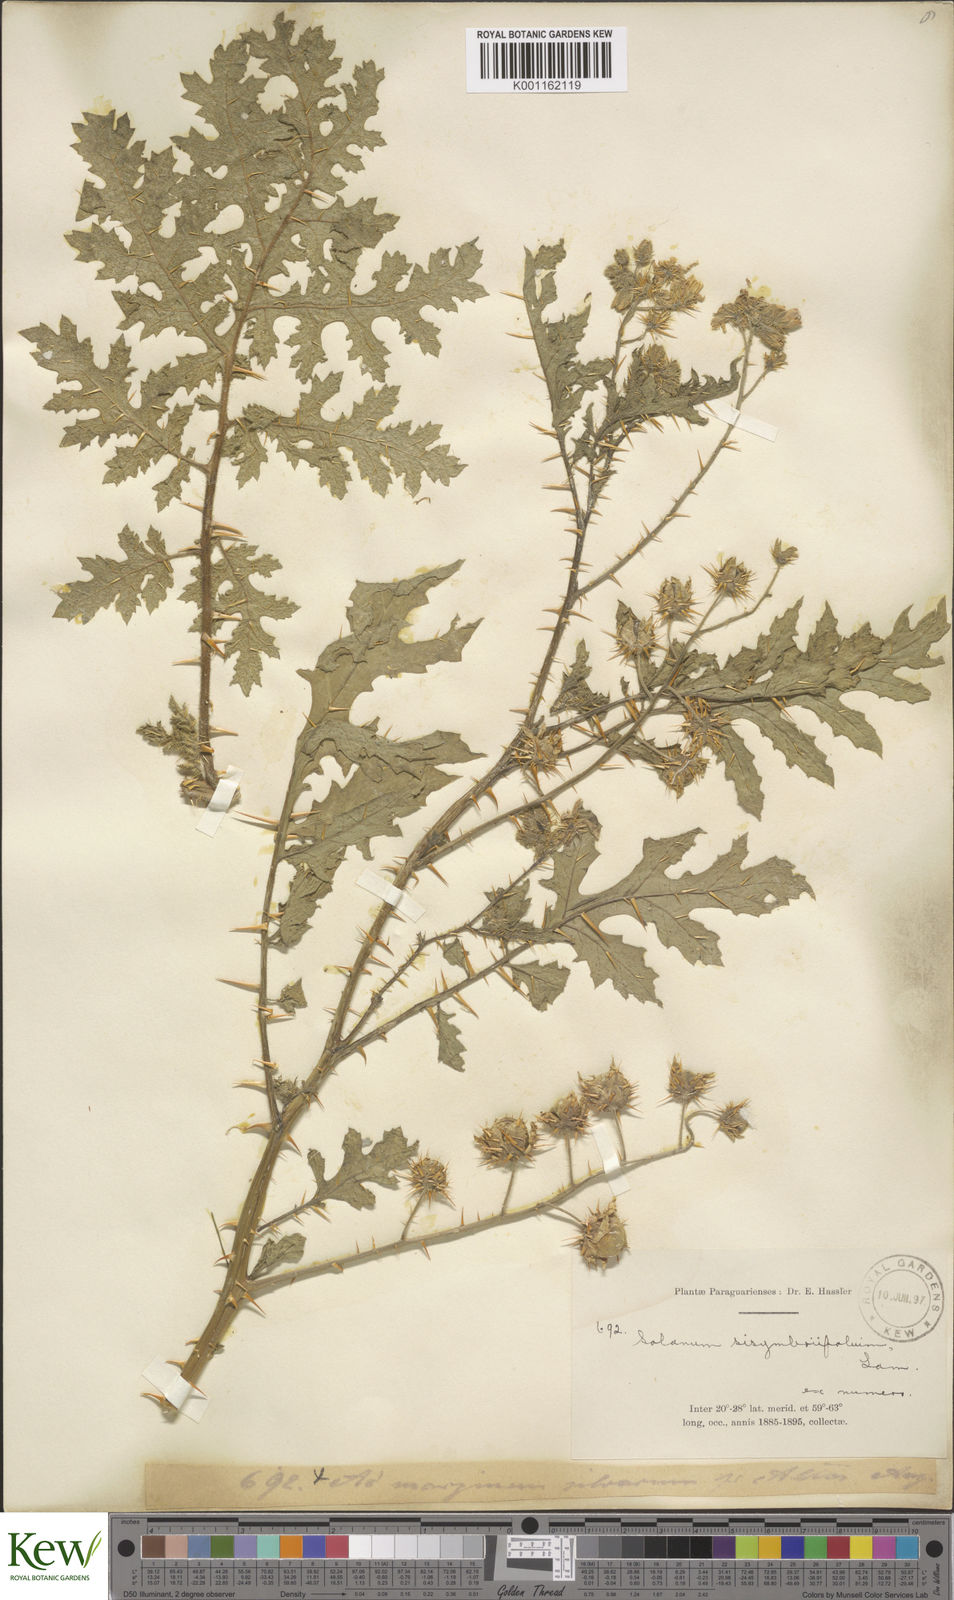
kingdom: Plantae
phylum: Tracheophyta
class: Magnoliopsida
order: Solanales
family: Solanaceae
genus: Solanum
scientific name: Solanum sisymbriifolium
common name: Red buffalo-bur
